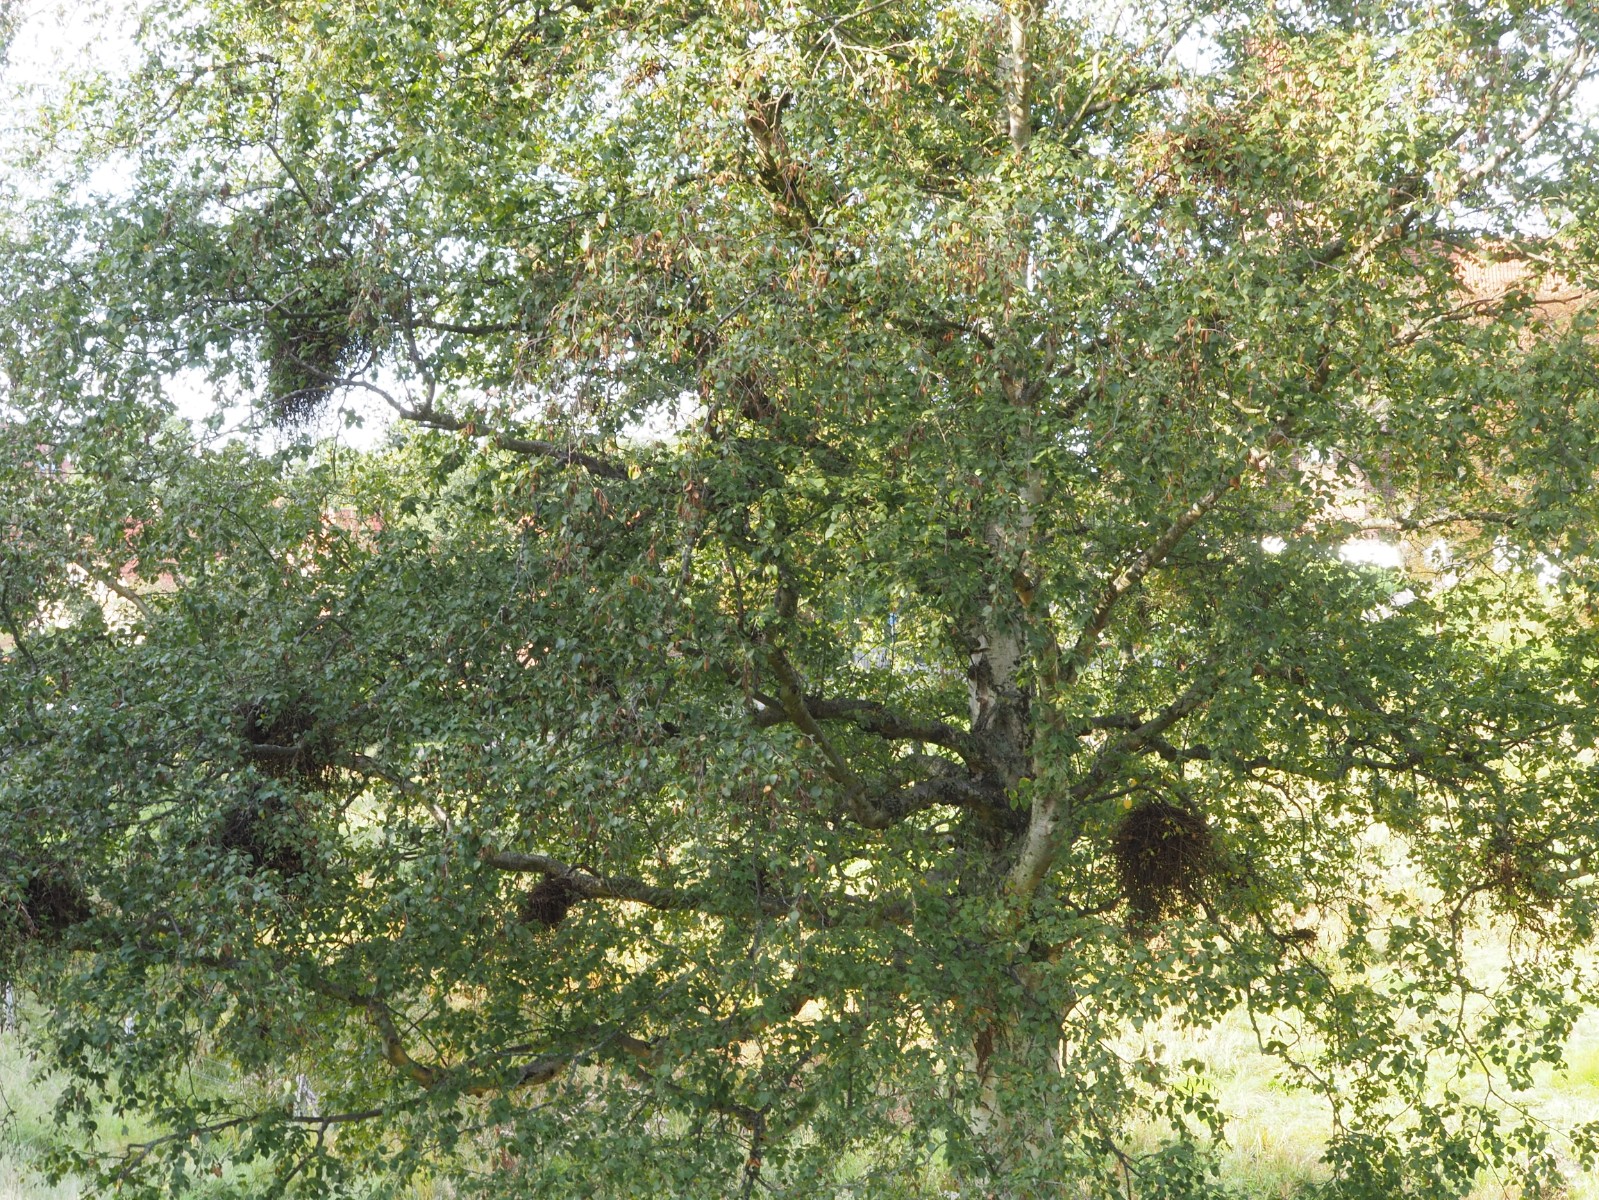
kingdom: Fungi
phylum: Ascomycota
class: Taphrinomycetes
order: Taphrinales
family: Taphrinaceae
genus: Taphrina
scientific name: Taphrina betulina
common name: hekse-sækdug
